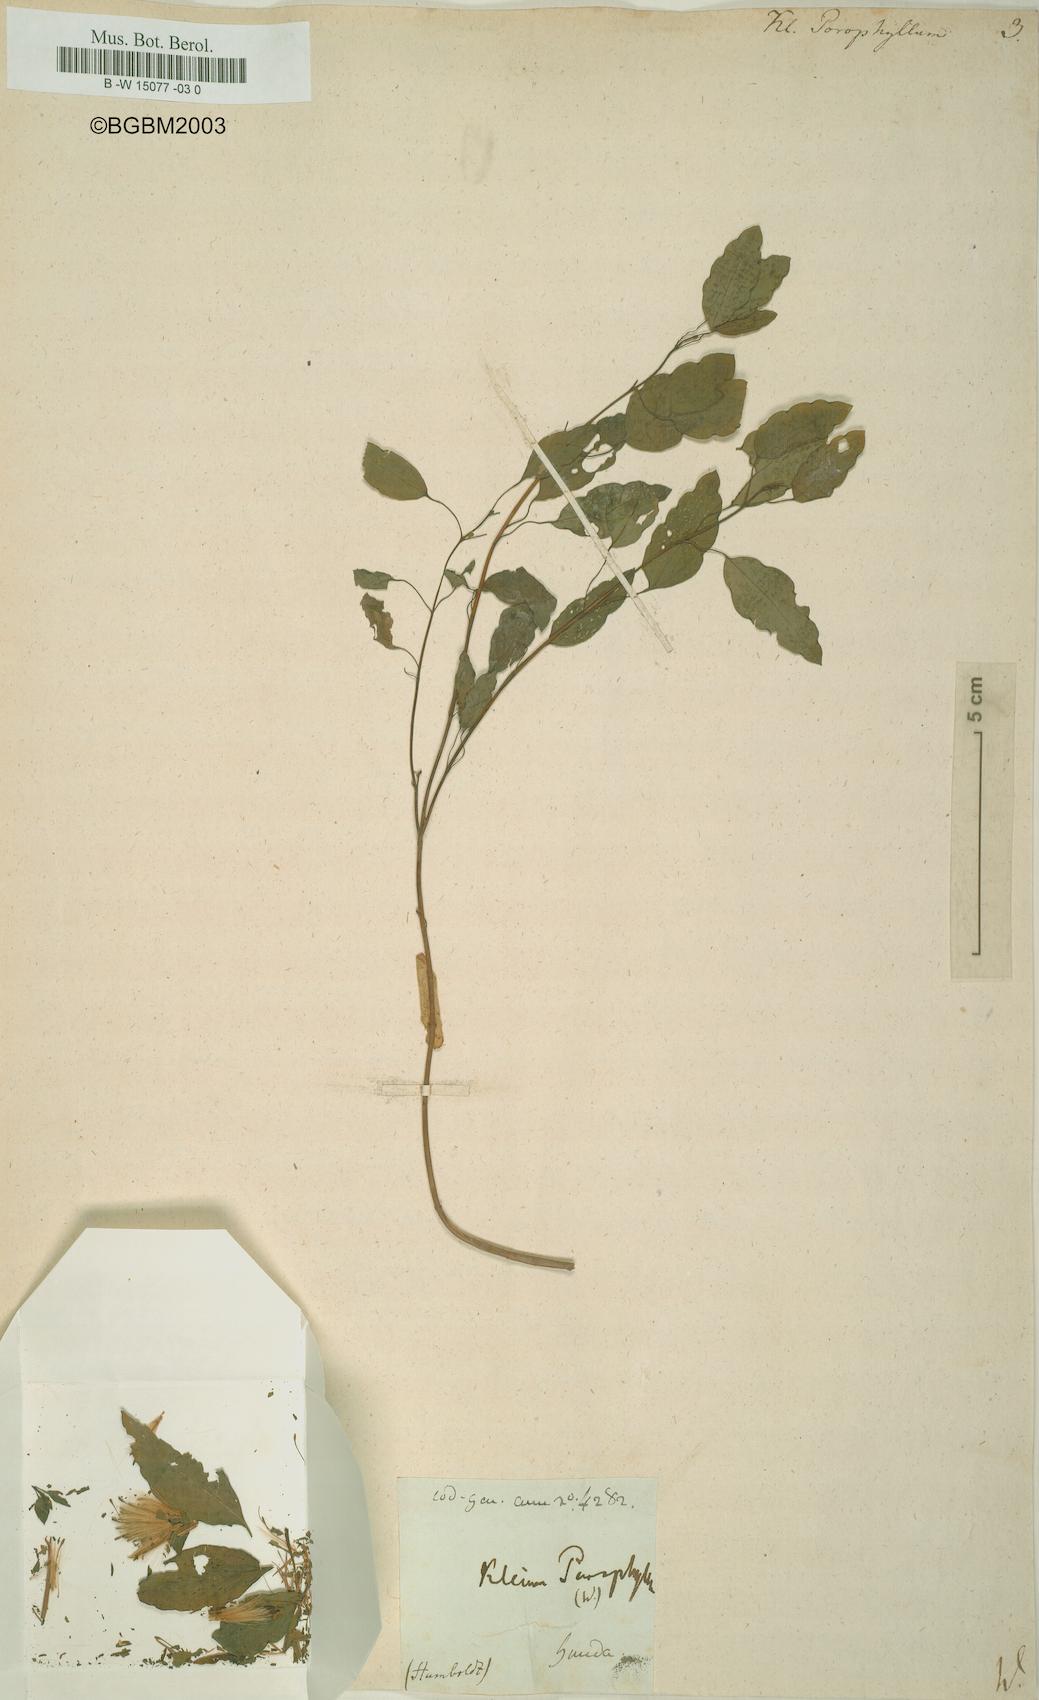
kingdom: Plantae
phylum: Tracheophyta
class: Magnoliopsida
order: Asterales
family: Asteraceae
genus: Porophyllum
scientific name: Porophyllum ruderale
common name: Yerba porosa
